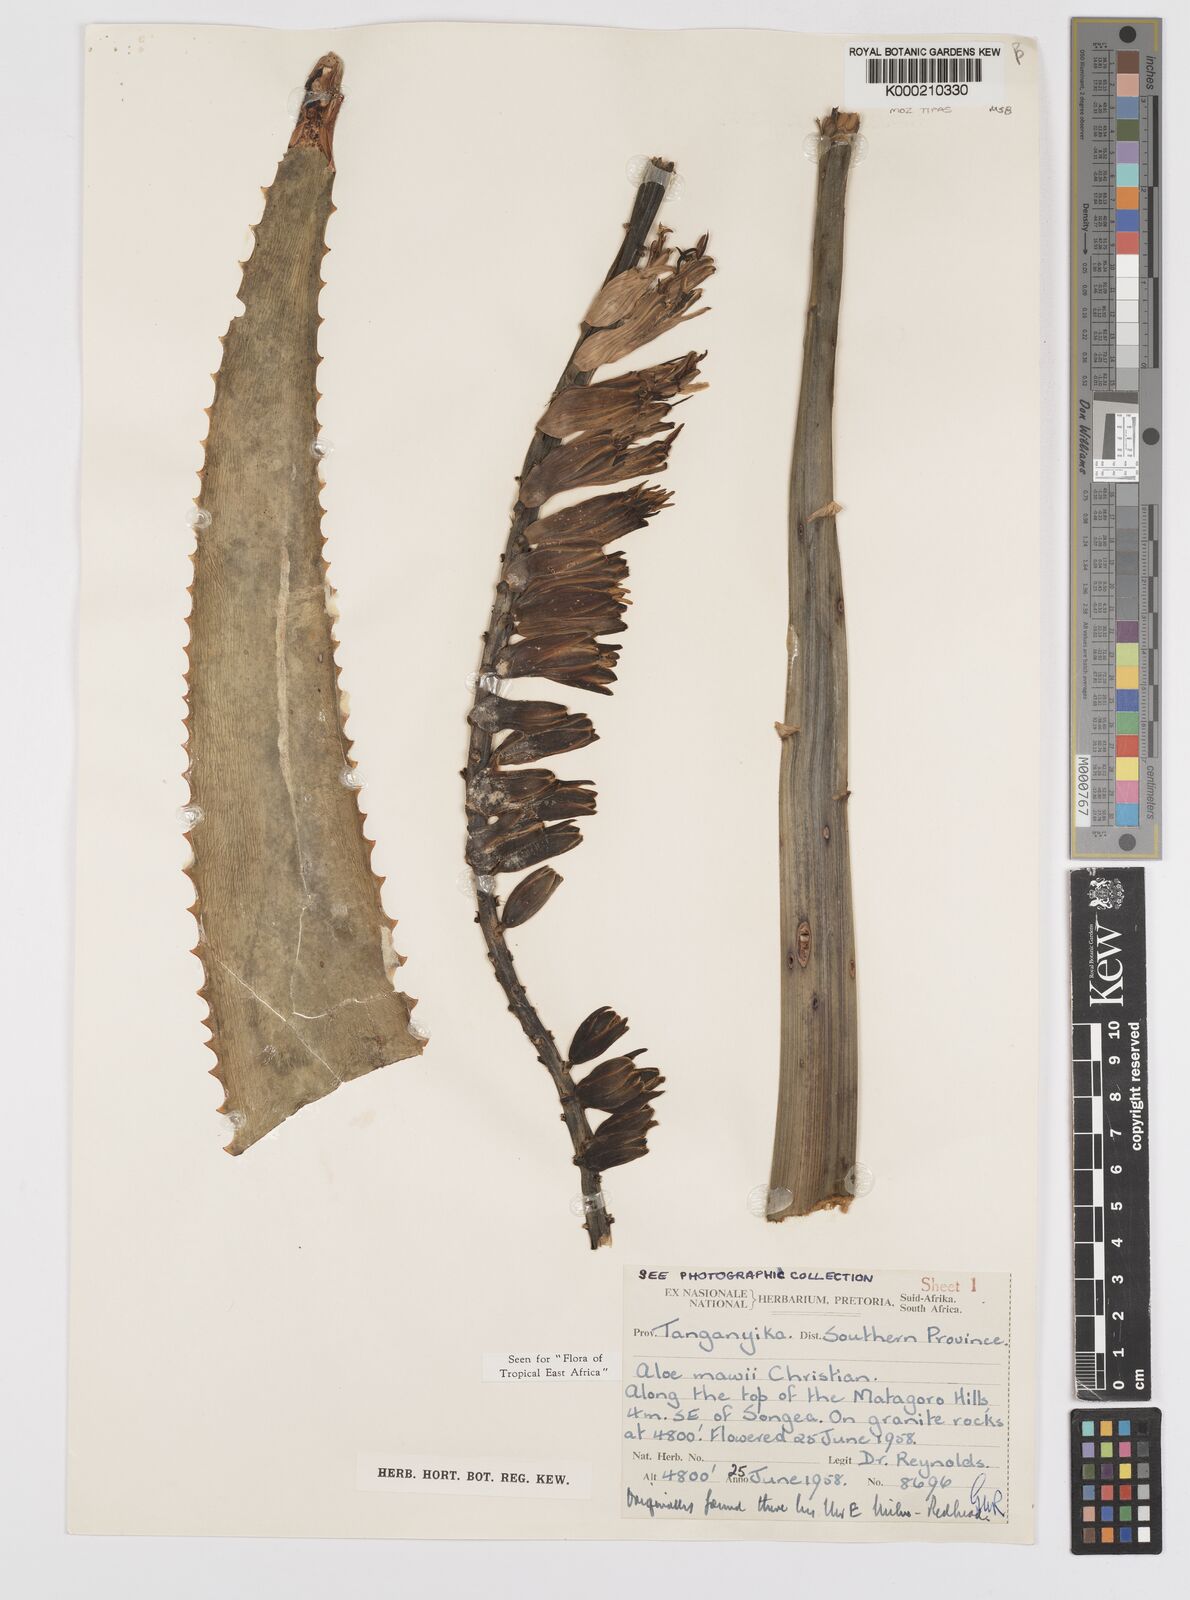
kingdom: Plantae
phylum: Tracheophyta
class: Liliopsida
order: Asparagales
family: Asphodelaceae
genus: Aloe
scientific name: Aloe mawii
